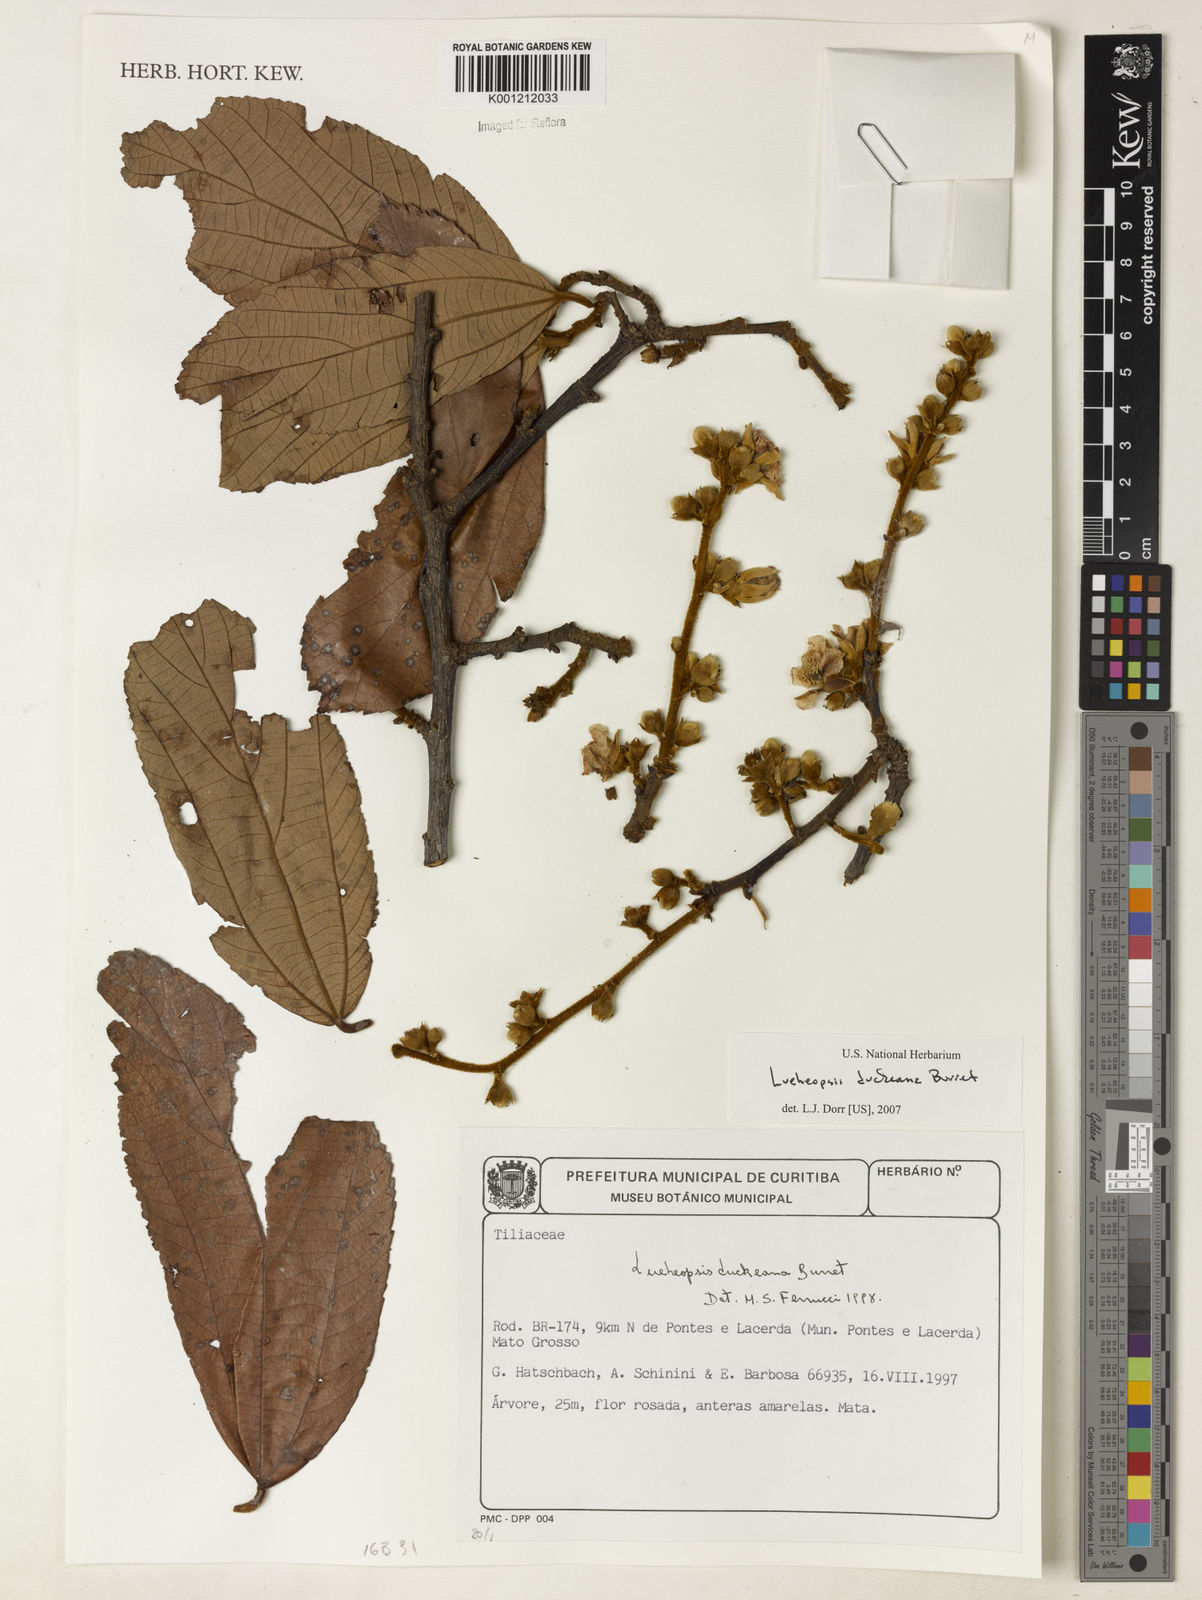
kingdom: Plantae
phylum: Tracheophyta
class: Magnoliopsida
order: Malvales
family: Malvaceae
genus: Lueheopsis
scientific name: Lueheopsis duckeana
